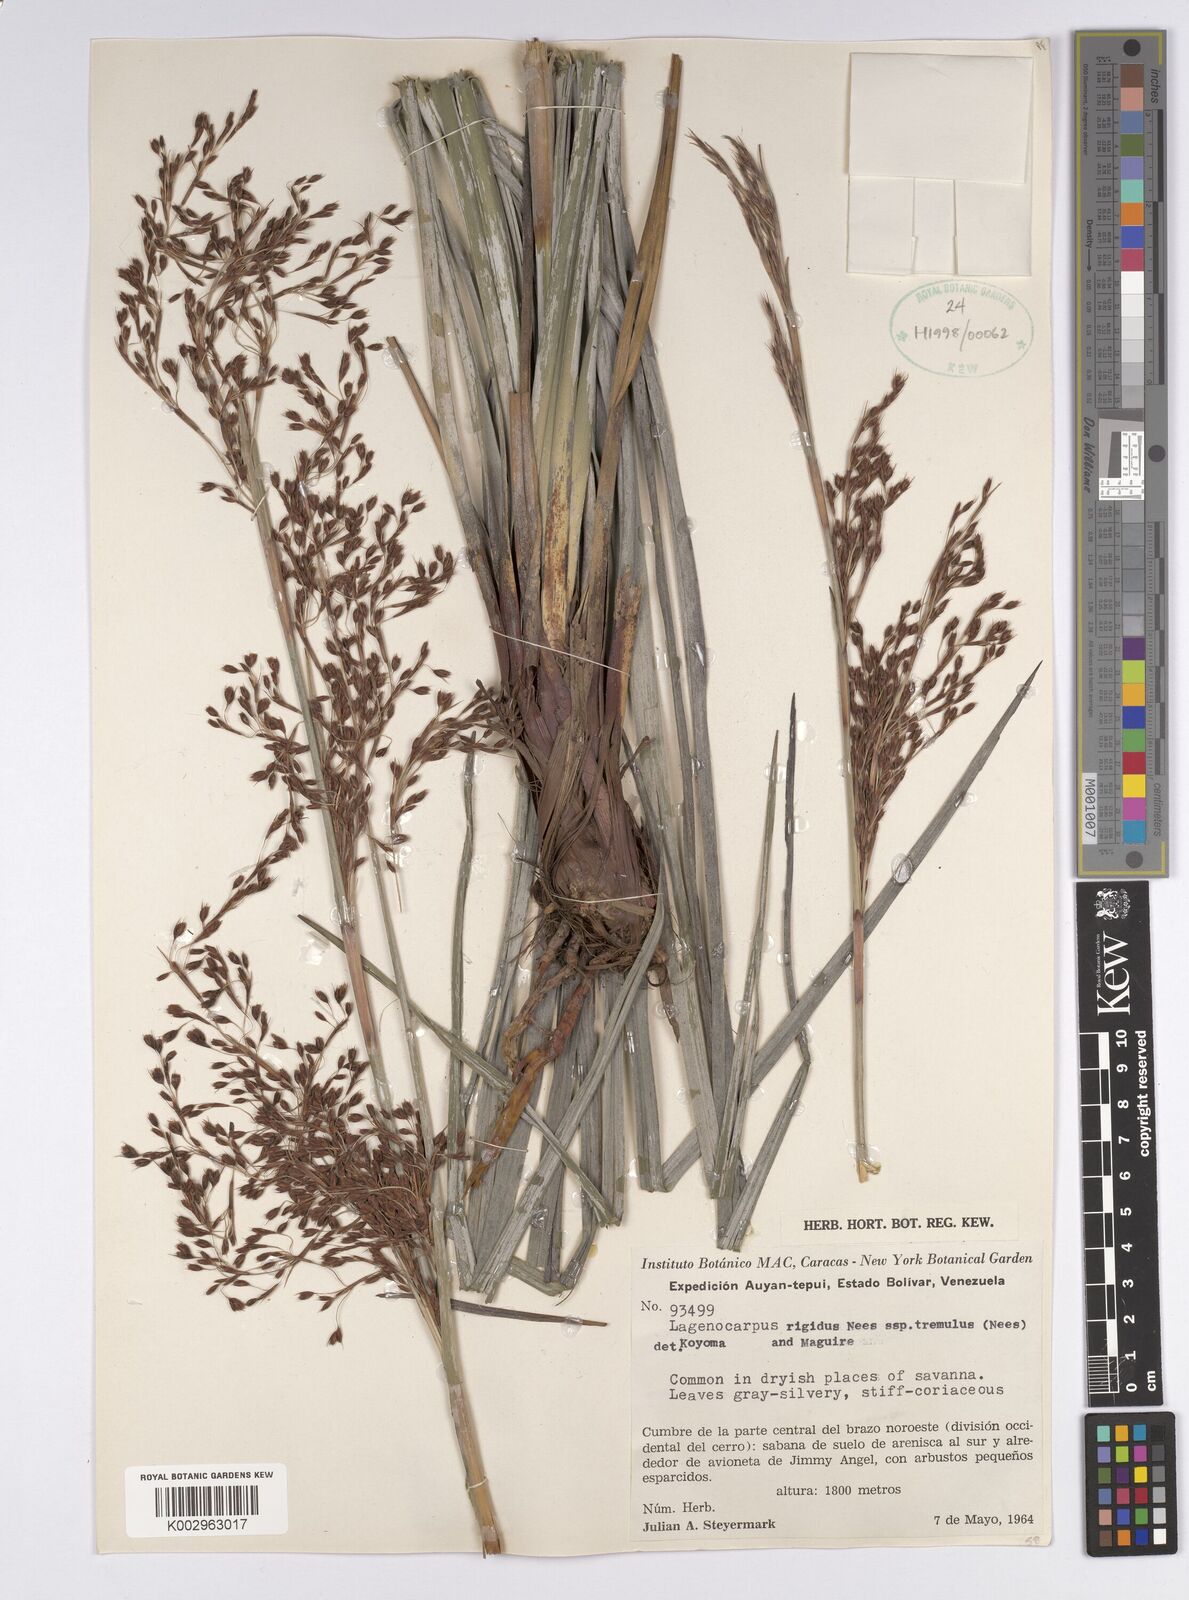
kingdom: Plantae
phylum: Tracheophyta
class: Liliopsida
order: Poales
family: Cyperaceae
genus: Lagenocarpus
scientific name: Lagenocarpus rigidus
